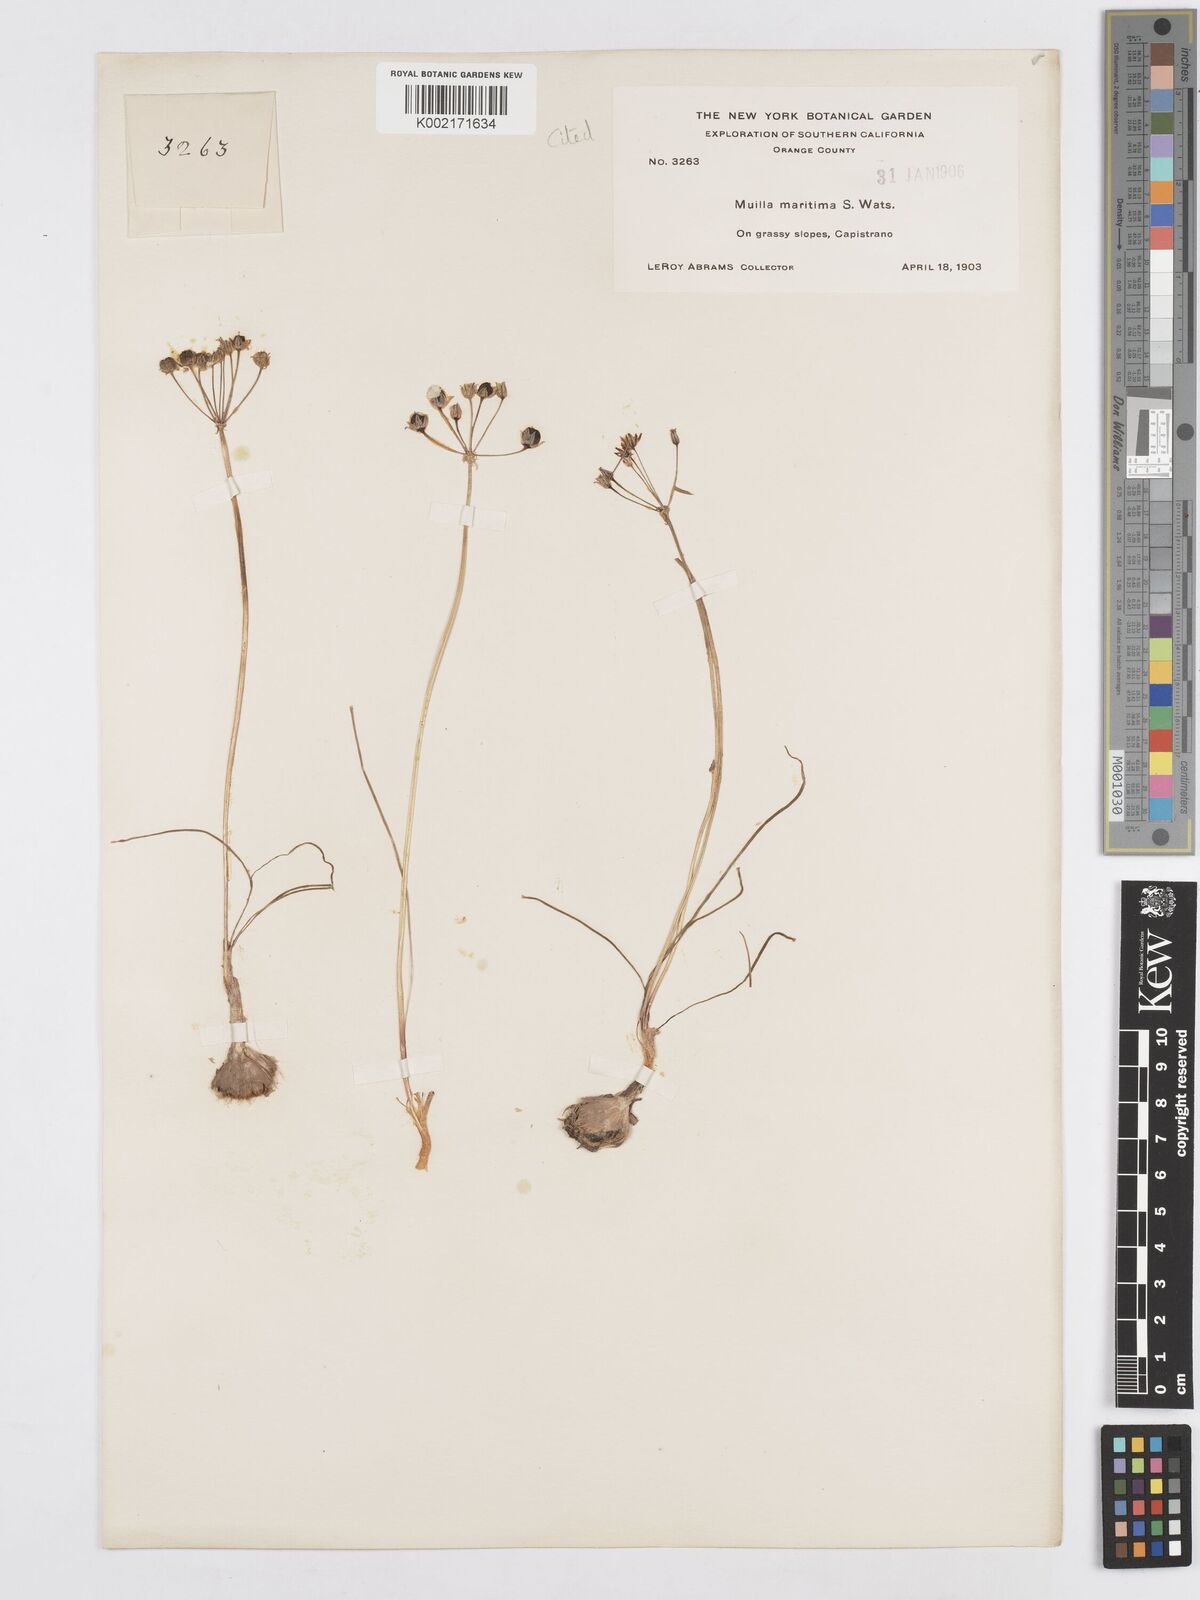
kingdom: Plantae
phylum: Tracheophyta
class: Liliopsida
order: Asparagales
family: Asparagaceae
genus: Muilla
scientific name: Muilla maritima
